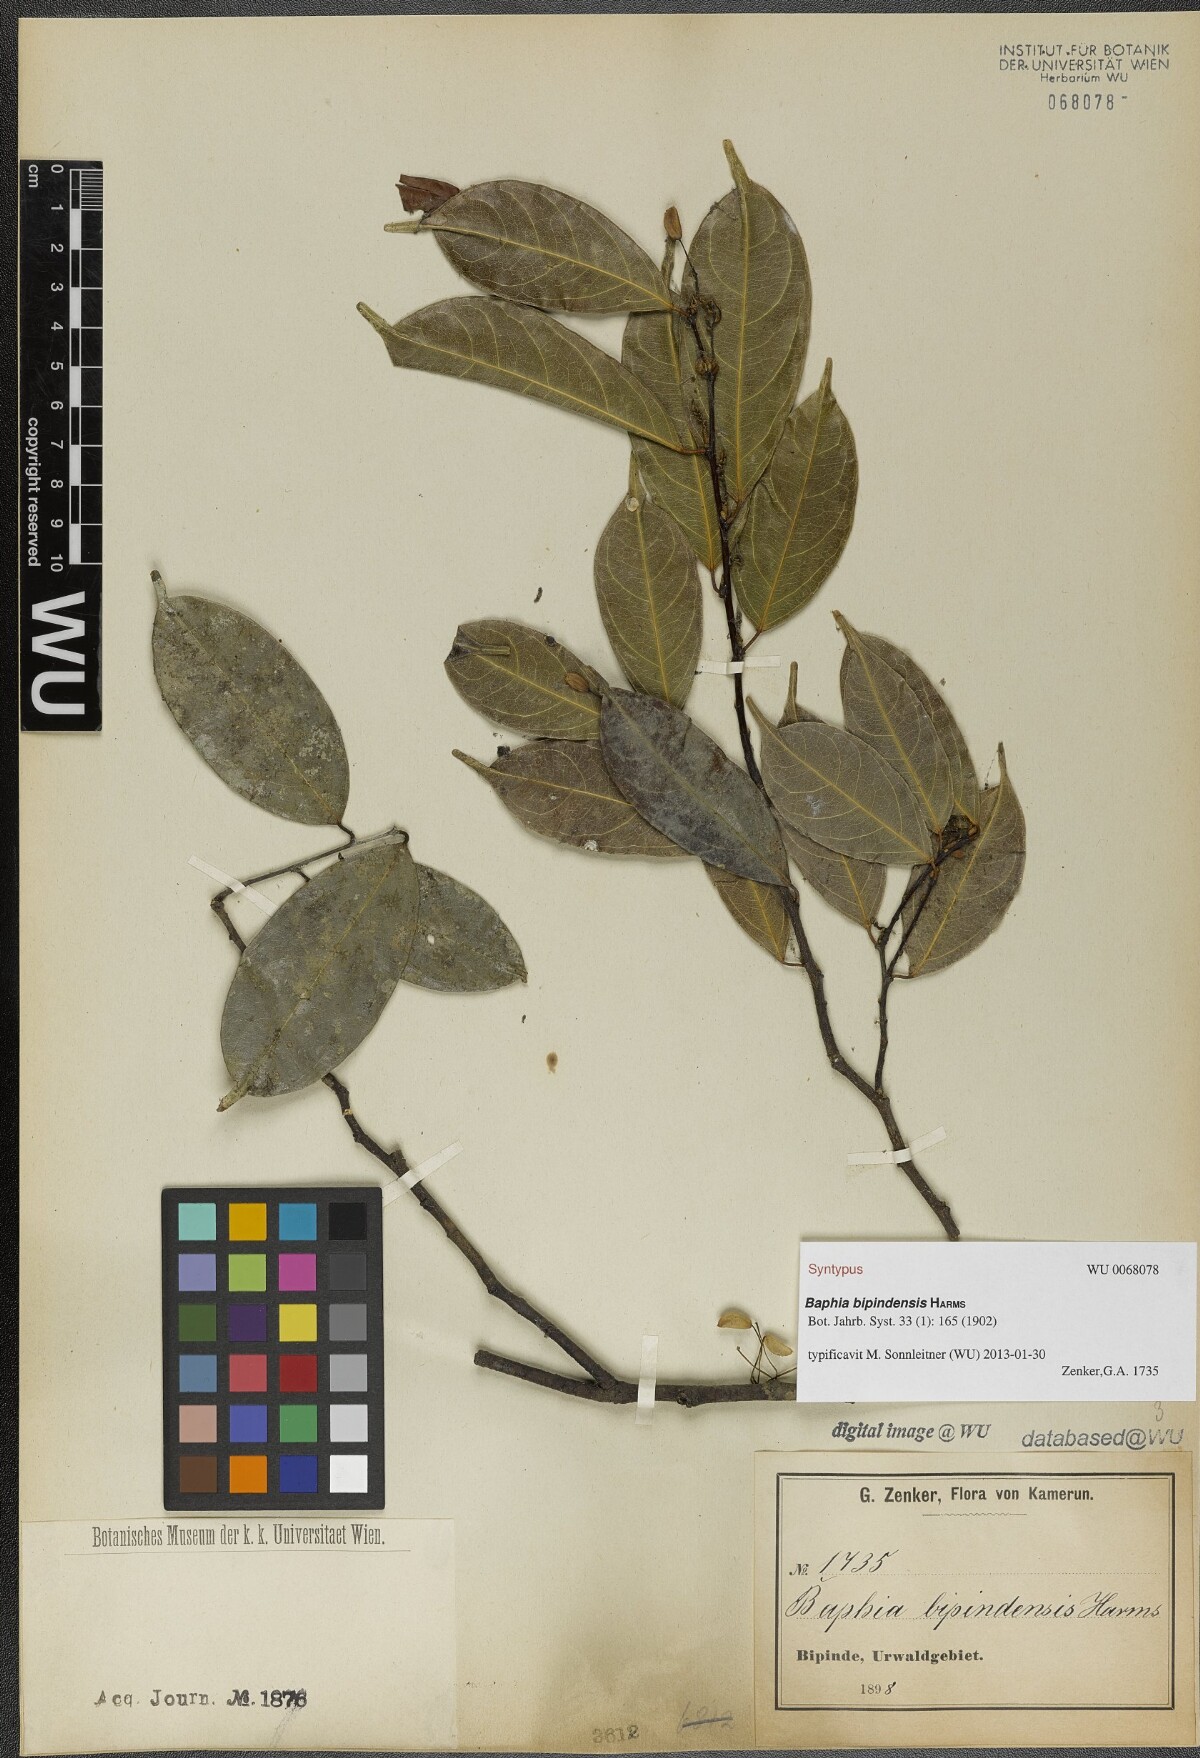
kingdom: Plantae
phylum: Tracheophyta
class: Magnoliopsida
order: Fabales
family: Fabaceae
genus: Baphia
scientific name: Baphia buettneri
